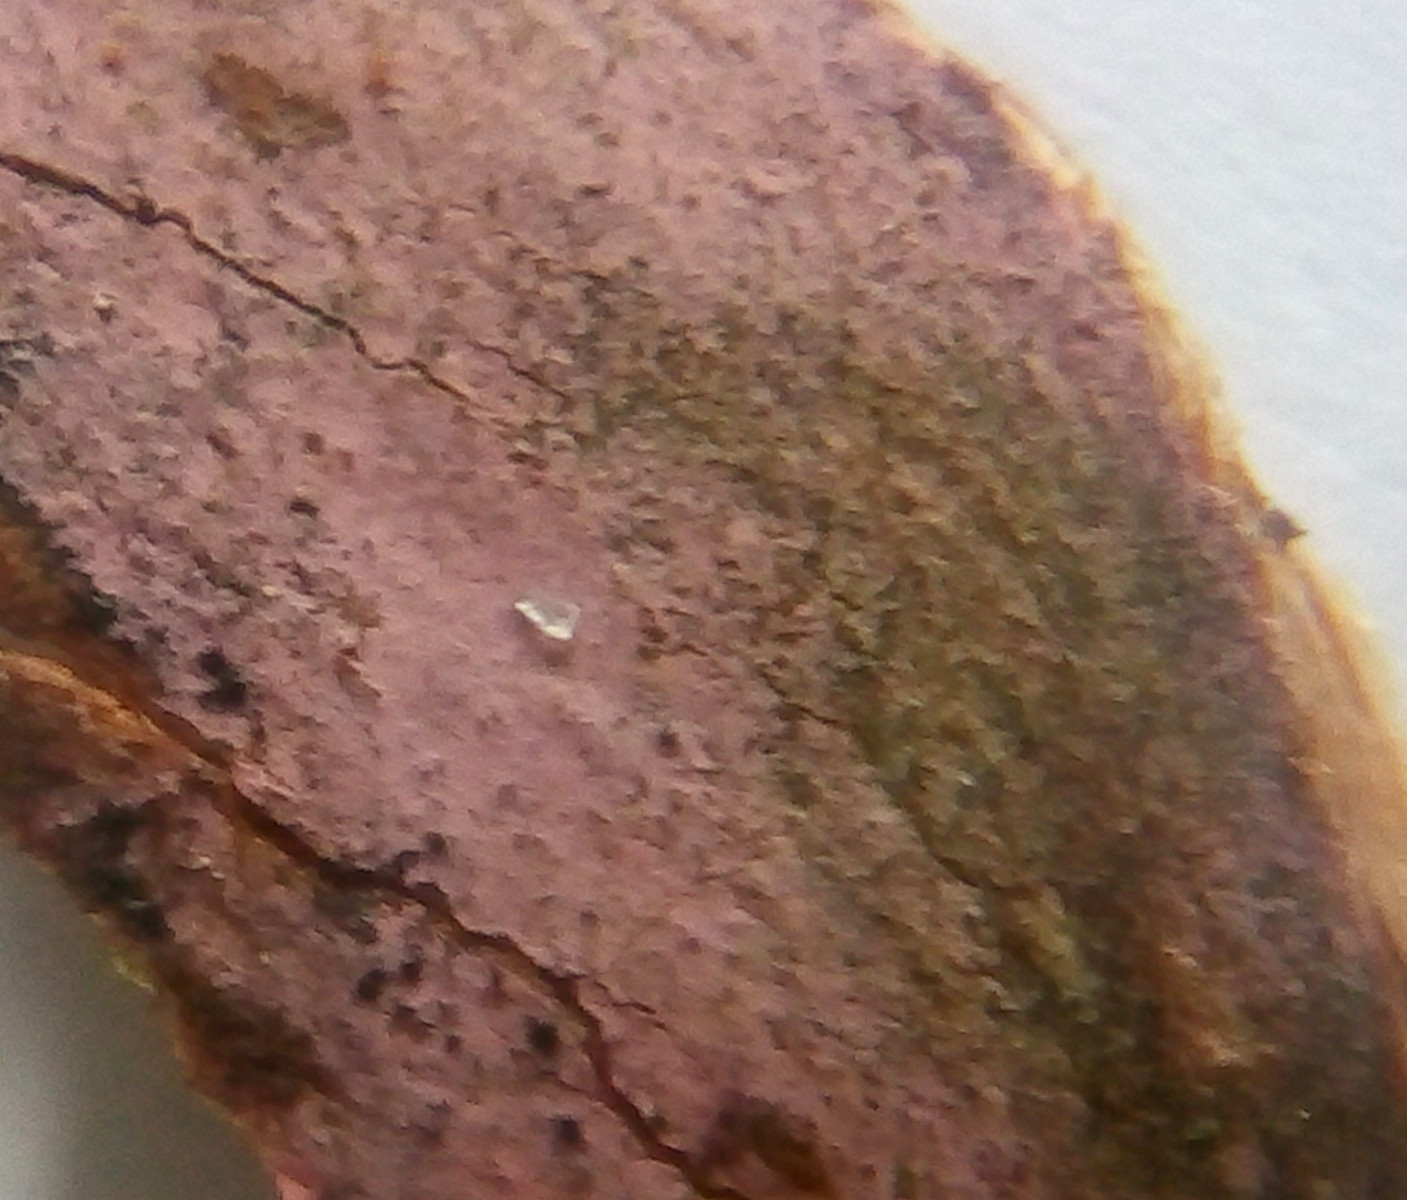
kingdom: Fungi
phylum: Basidiomycota
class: Agaricomycetes
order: Cantharellales
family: Tulasnellaceae
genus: Tulasnella
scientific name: Tulasnella violea
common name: violet ballonhinde
